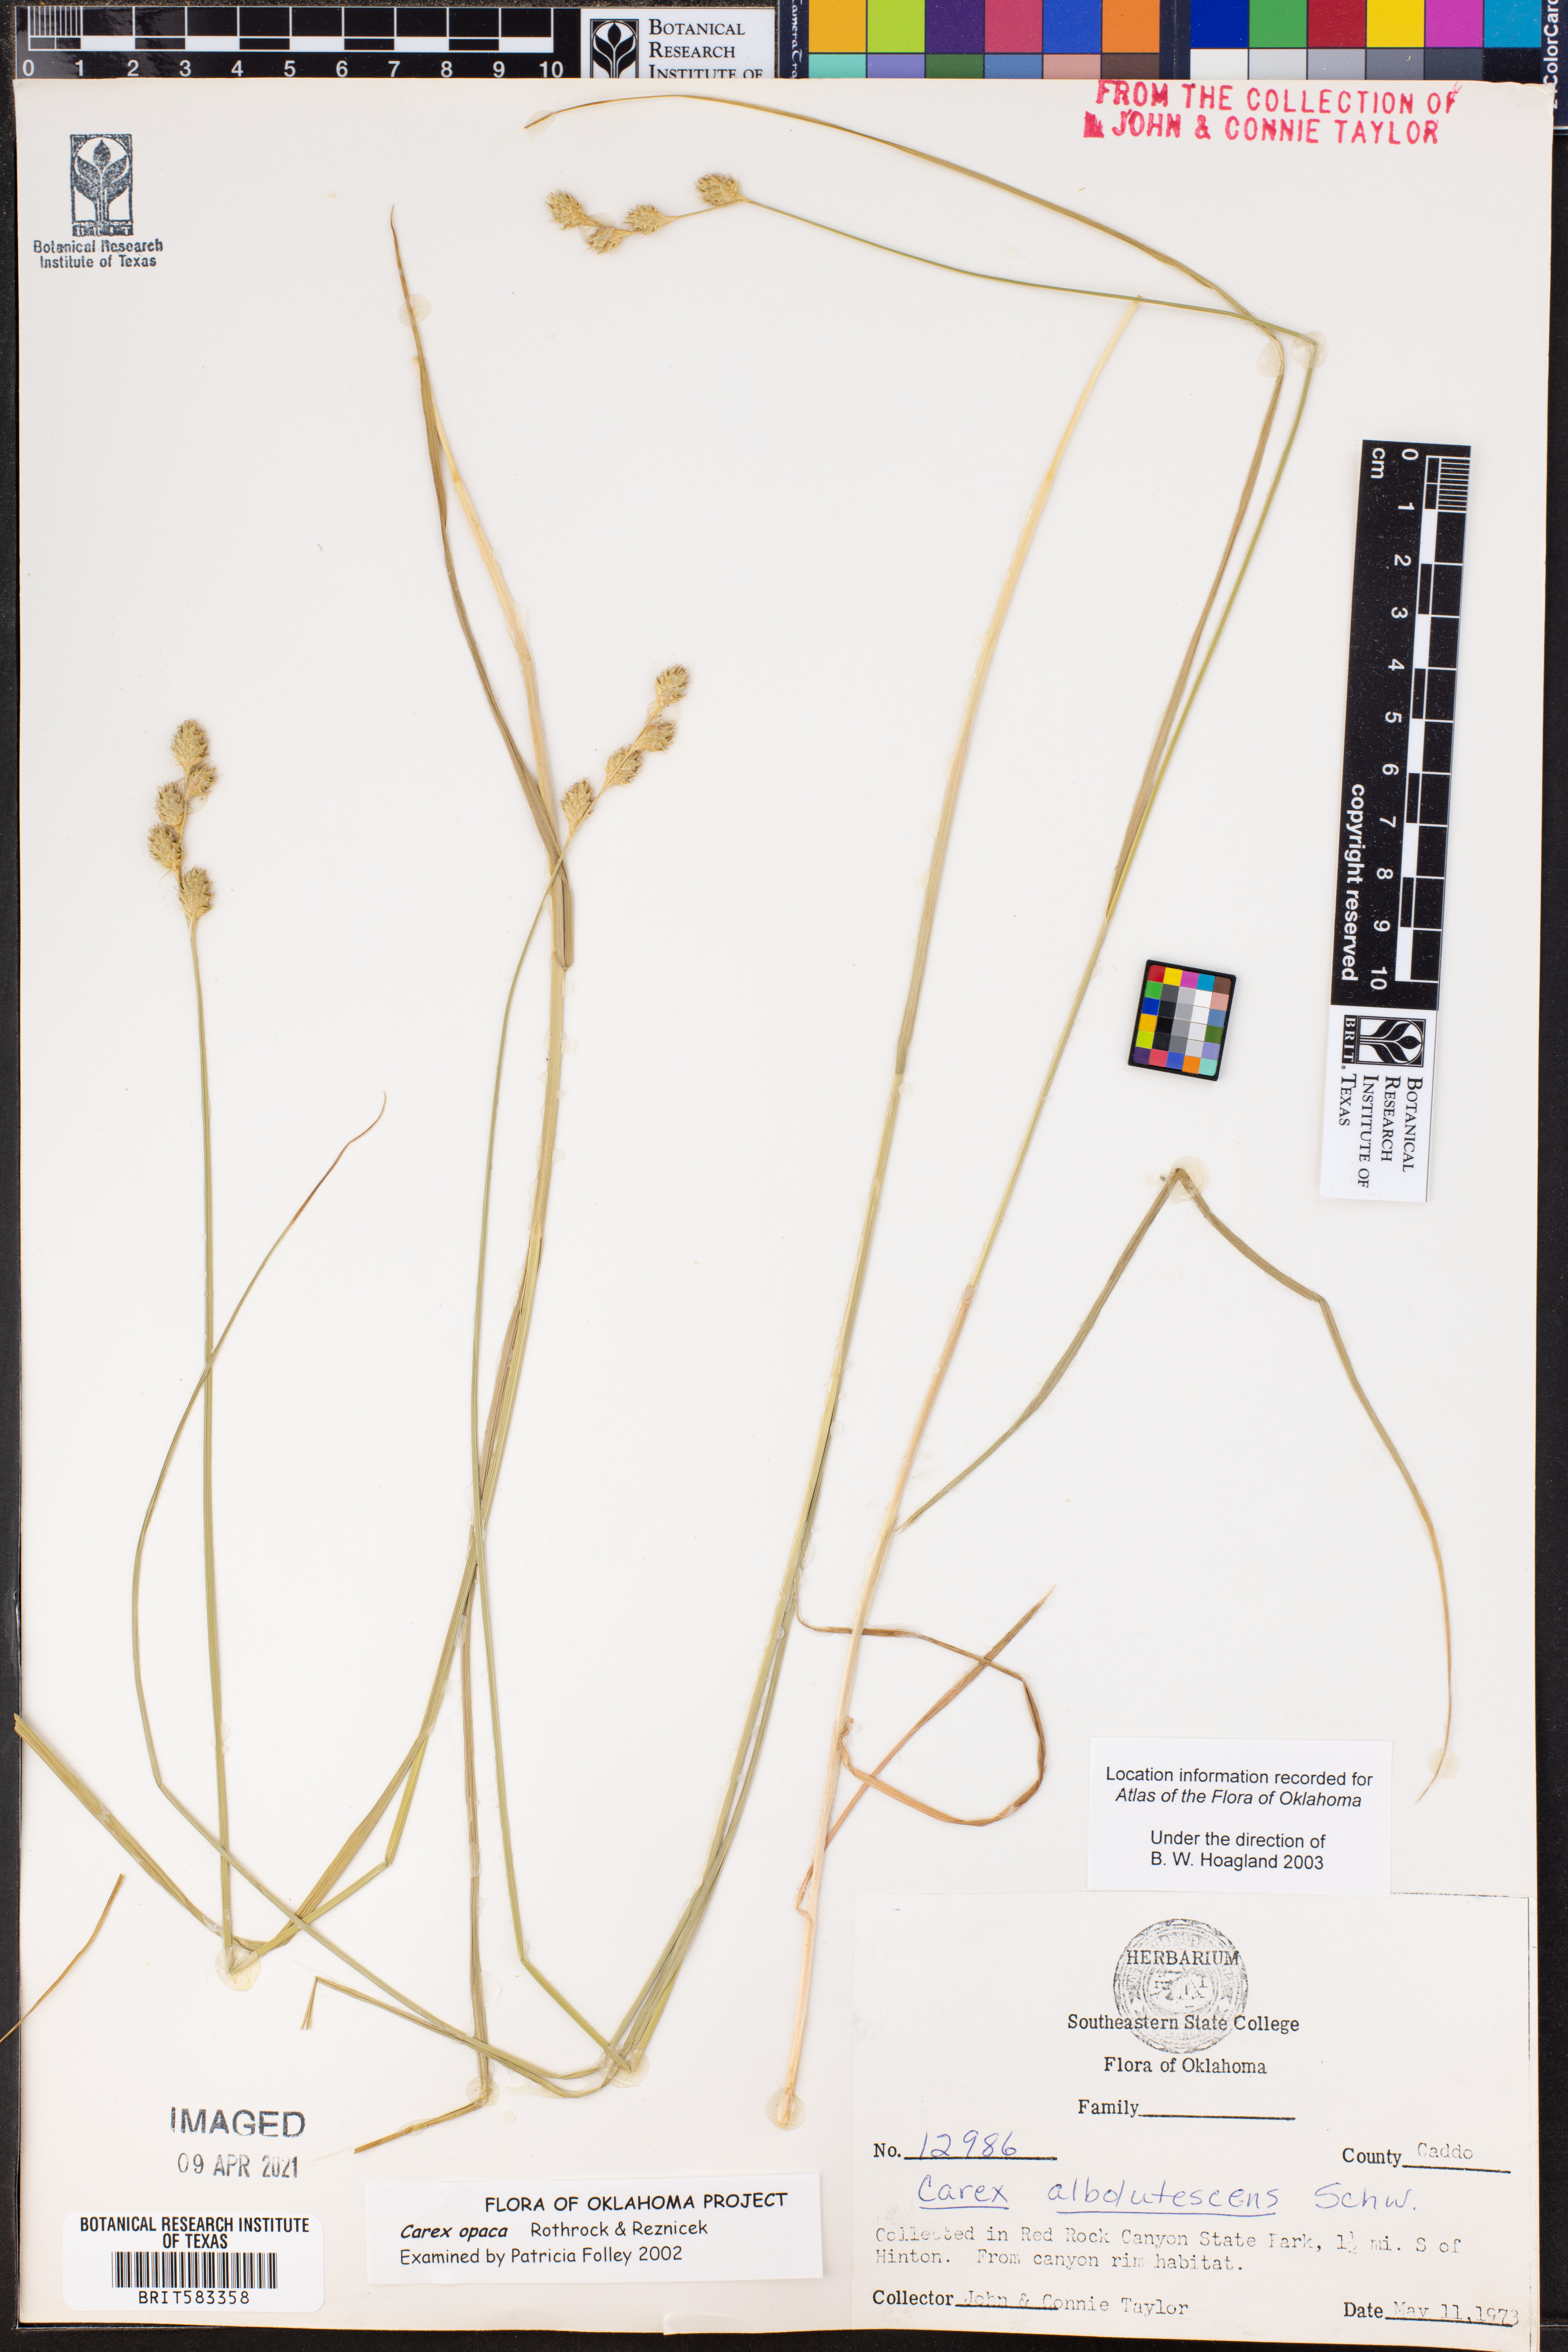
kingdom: Plantae
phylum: Tracheophyta
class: Liliopsida
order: Poales
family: Cyperaceae
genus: Carex
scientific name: Carex opaca
